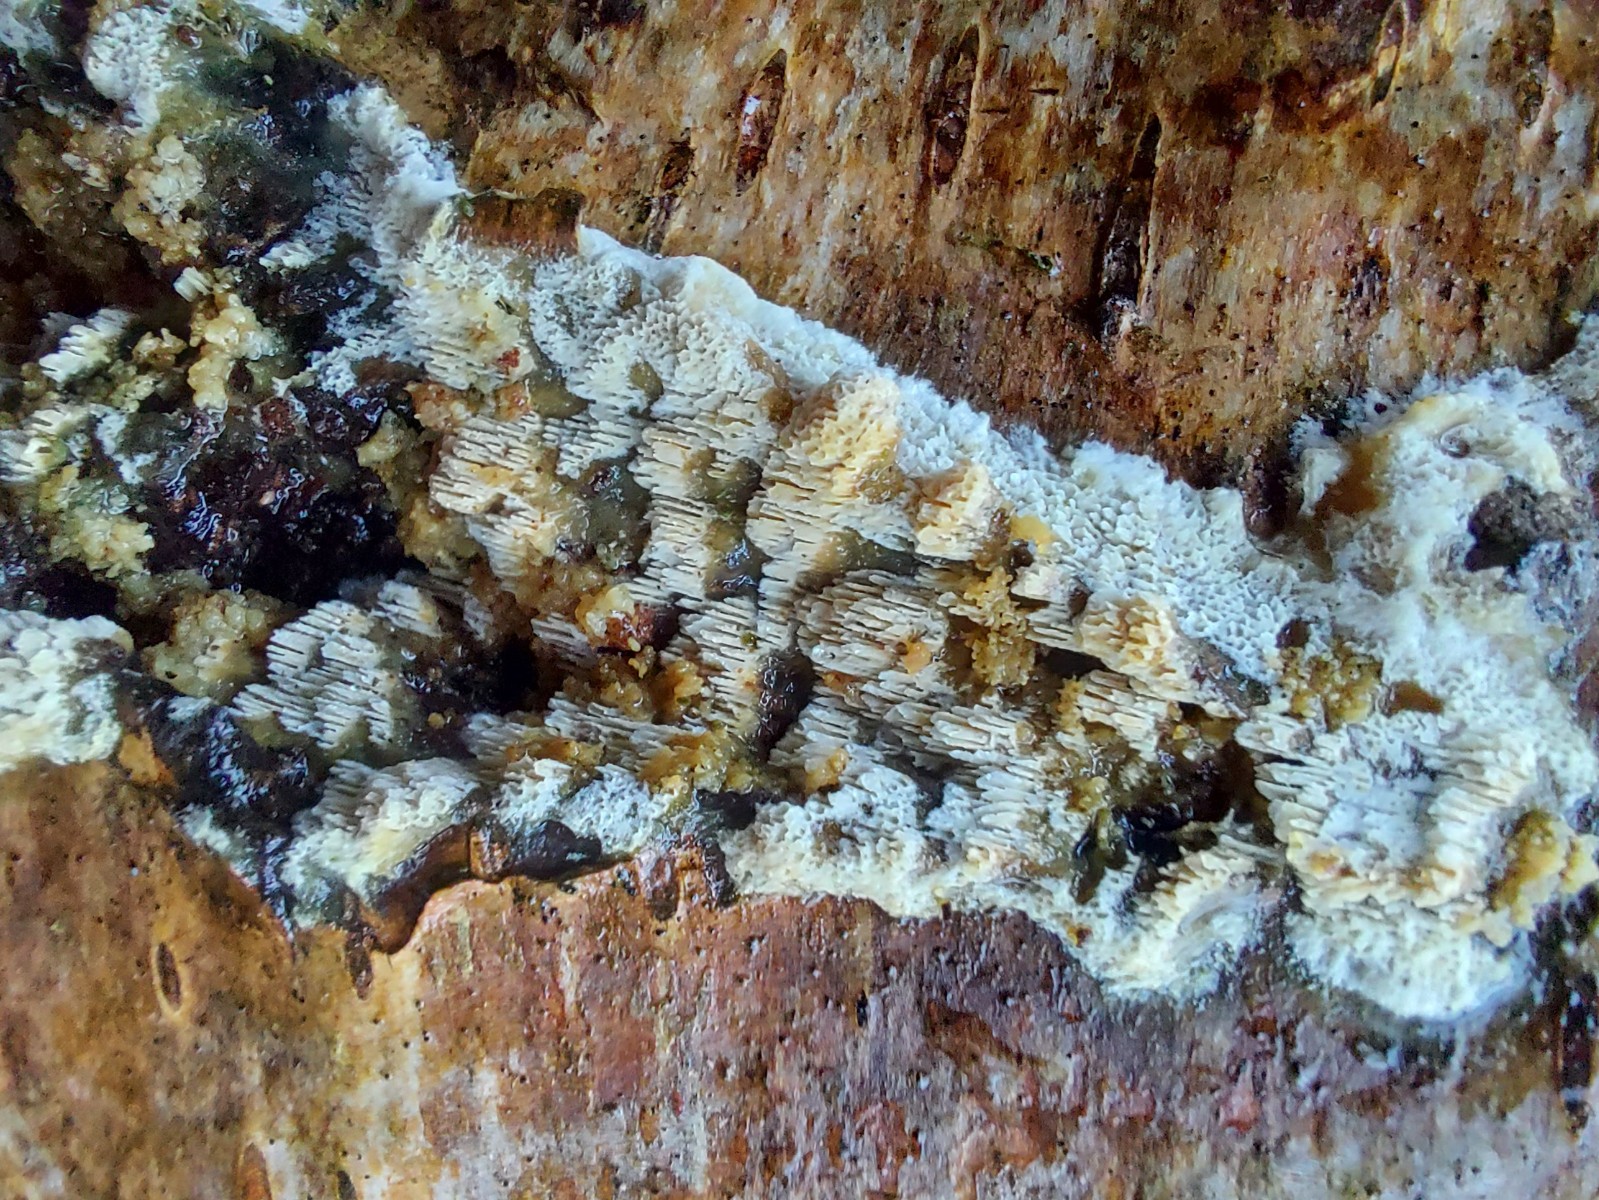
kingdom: Fungi
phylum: Basidiomycota
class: Agaricomycetes
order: Hymenochaetales
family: Schizoporaceae
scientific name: Schizoporaceae
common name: tandsvampfamilien
